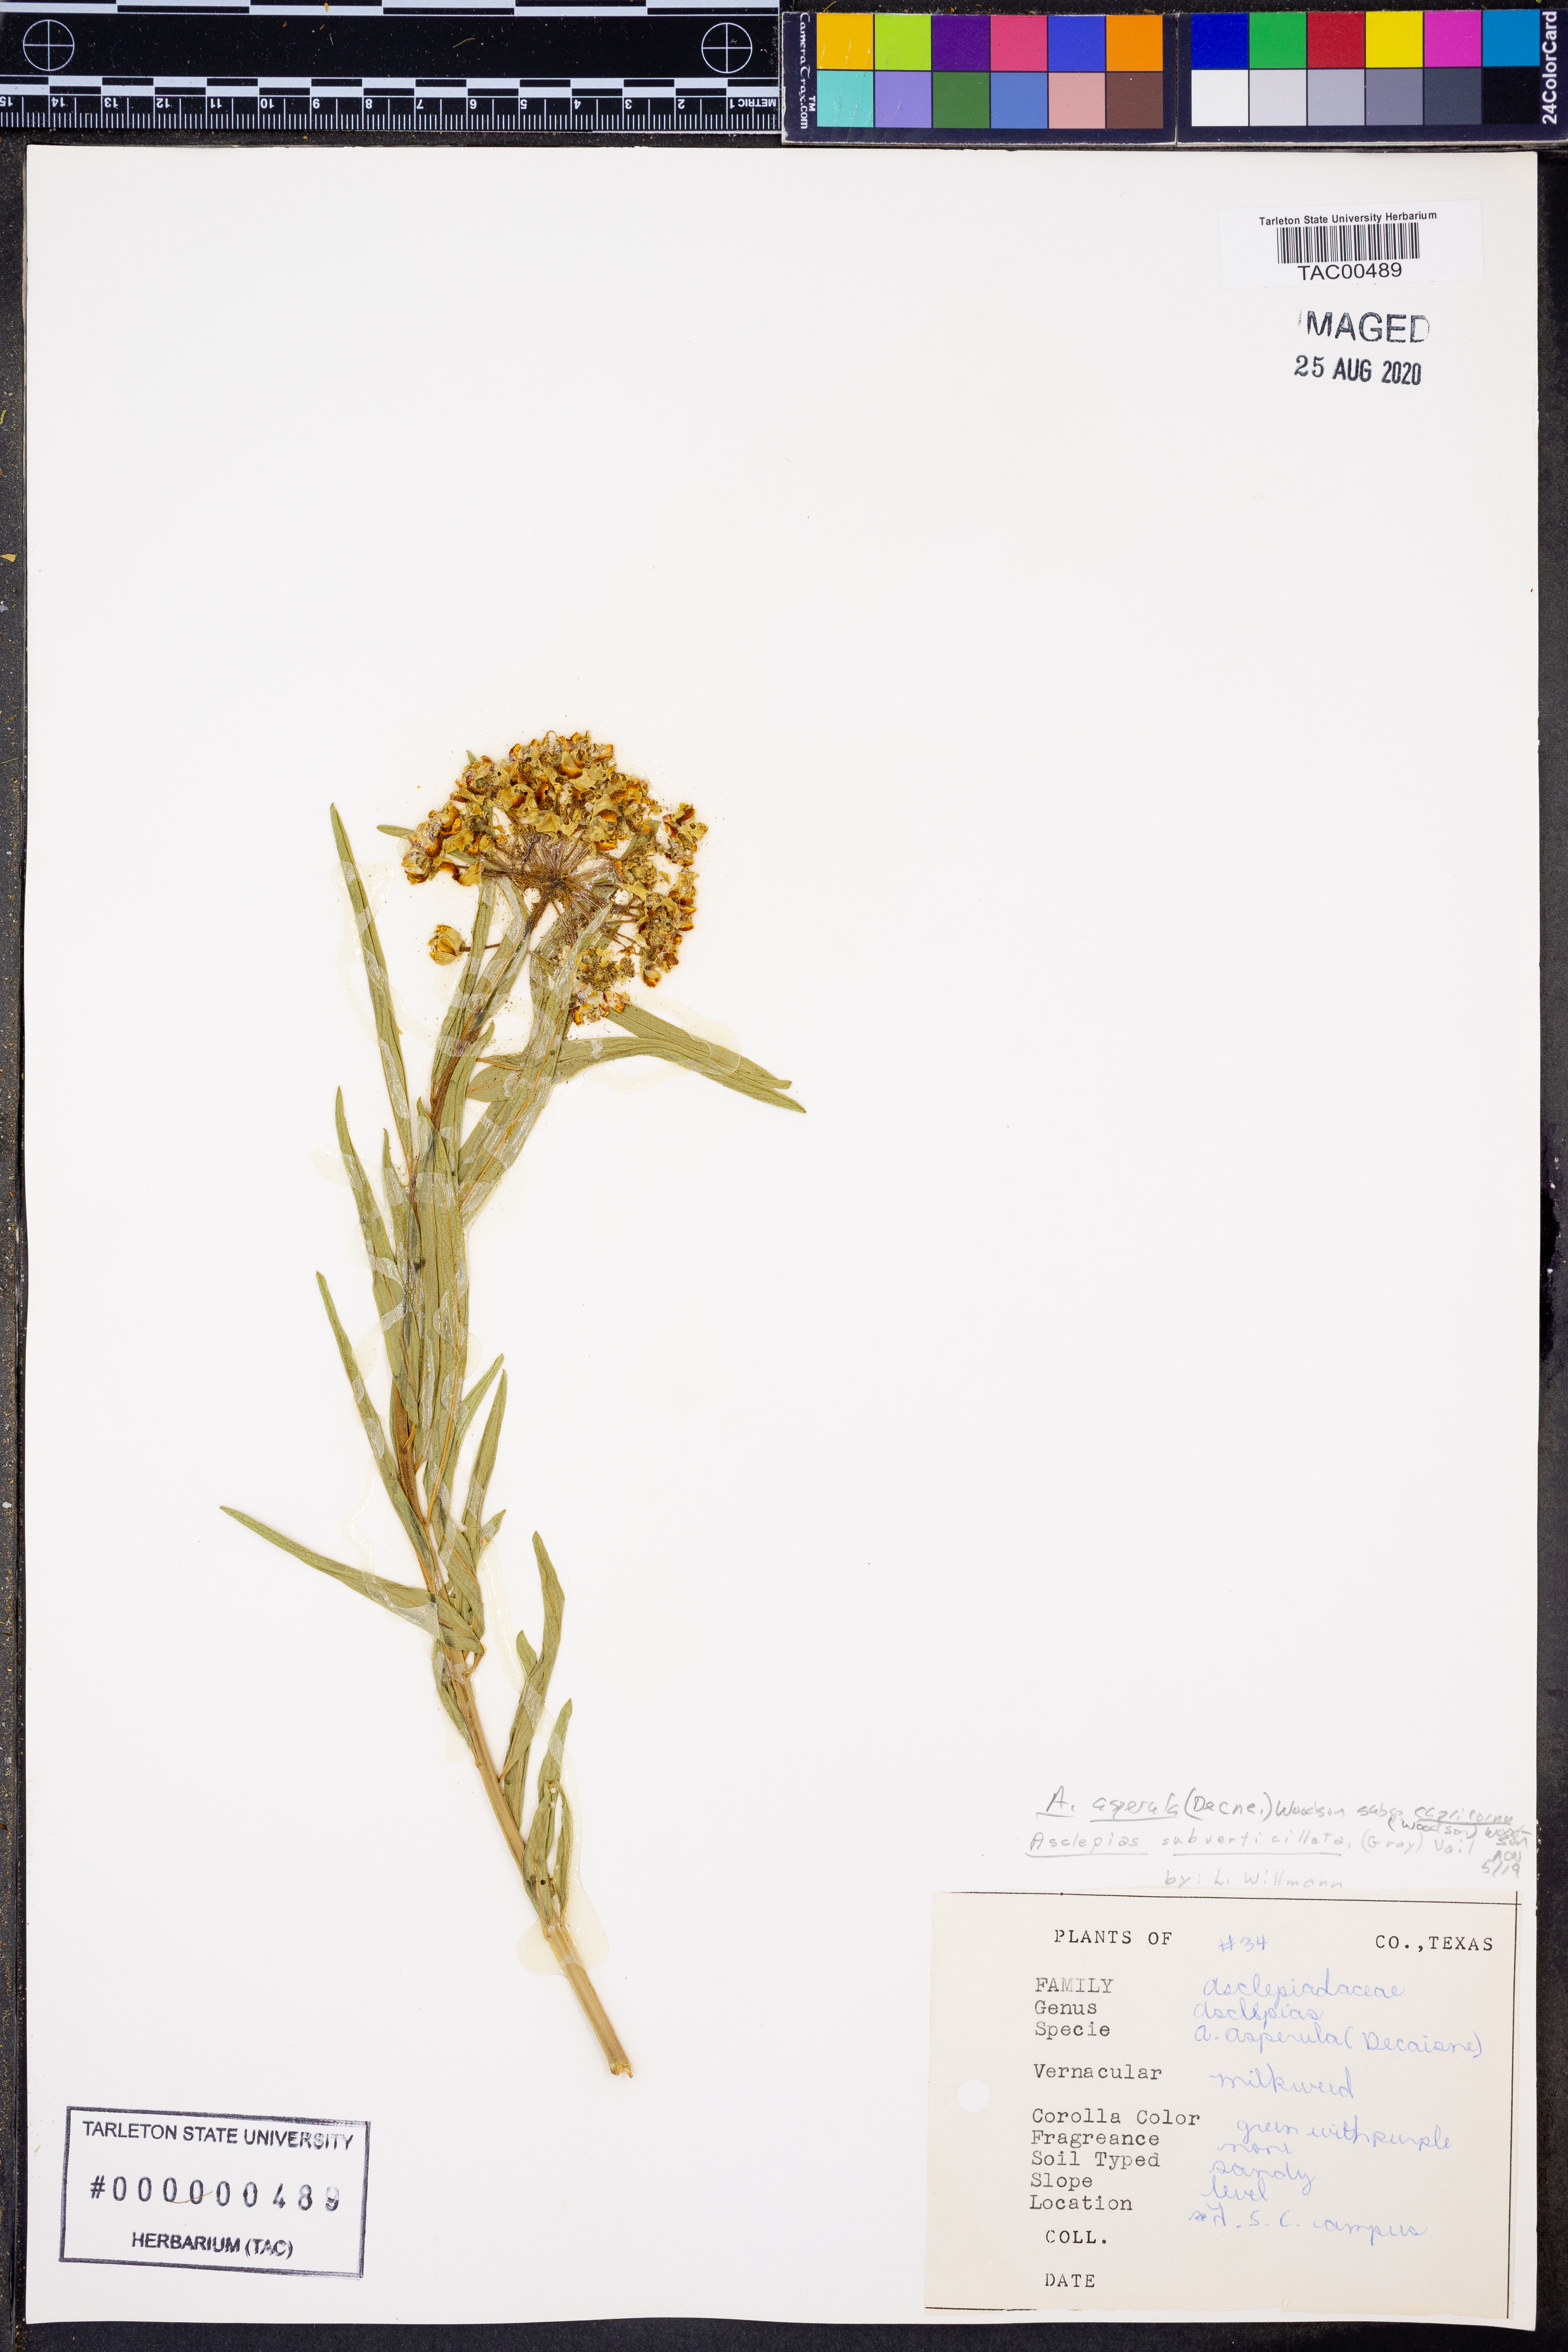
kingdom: Plantae
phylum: Tracheophyta
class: Magnoliopsida
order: Gentianales
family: Apocynaceae
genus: Asclepias
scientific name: Asclepias asperula
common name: Antelope horns
